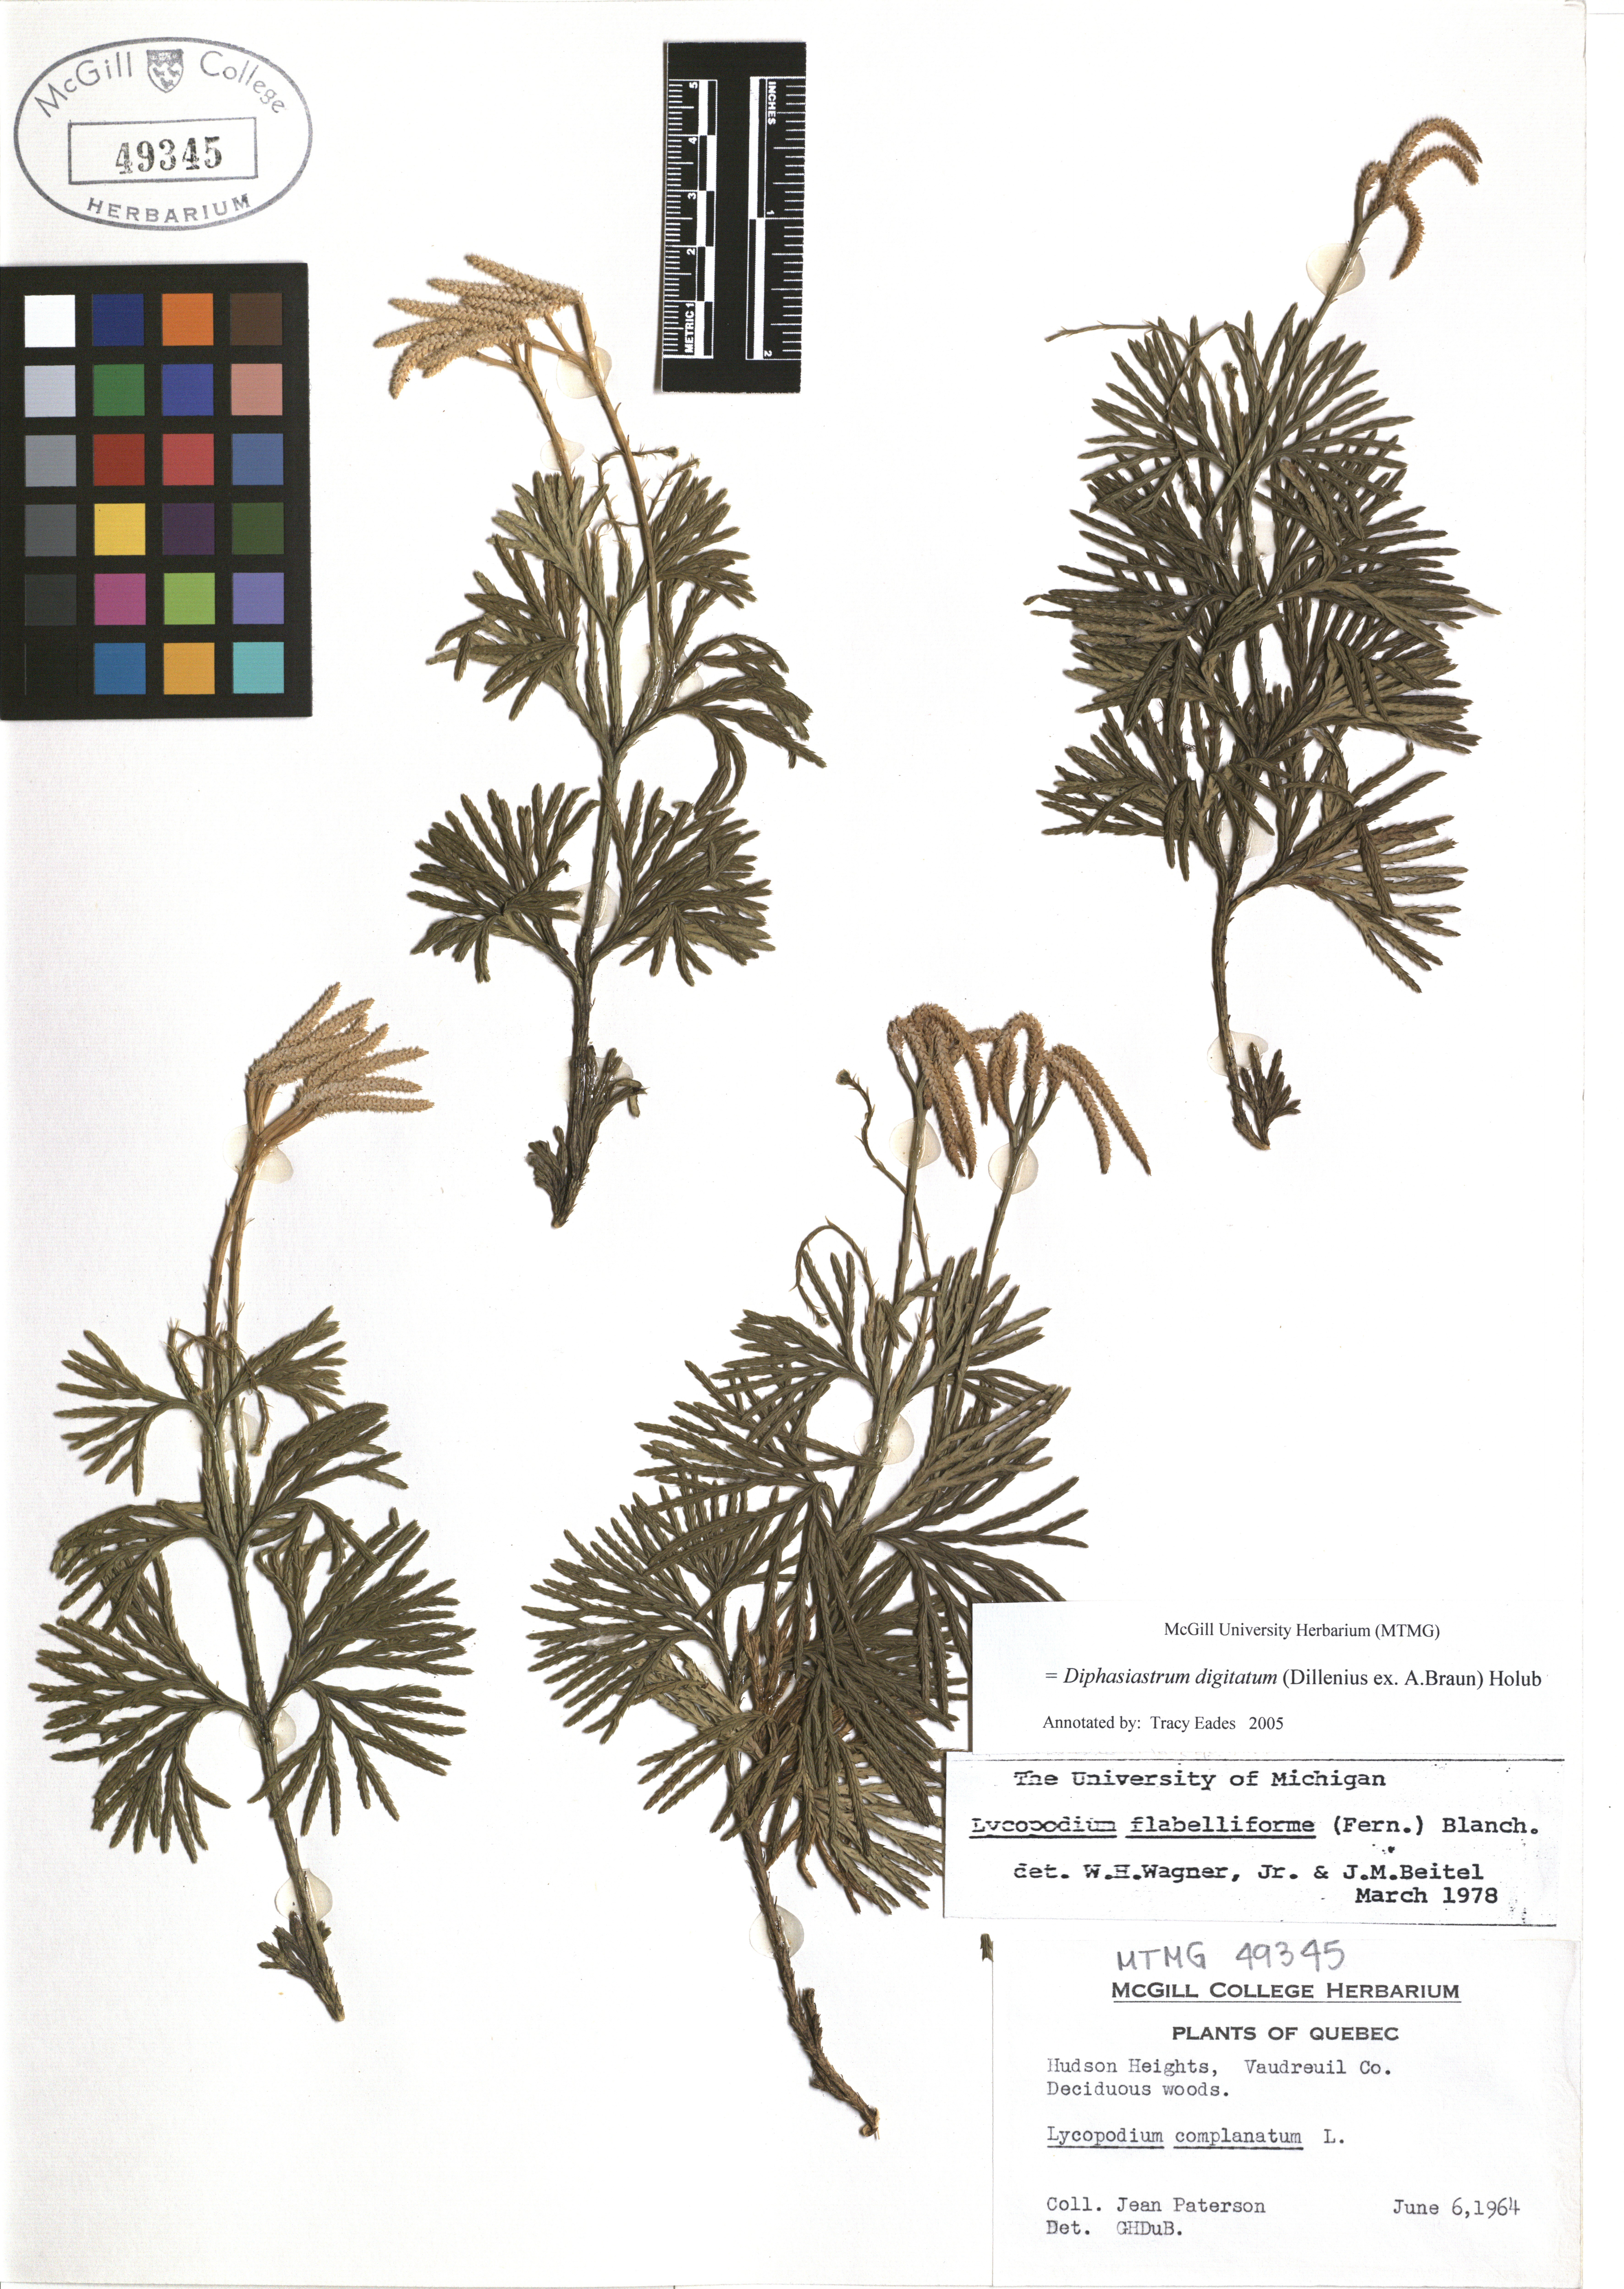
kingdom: Plantae
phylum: Tracheophyta
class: Lycopodiopsida
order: Lycopodiales
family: Lycopodiaceae
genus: Diphasiastrum
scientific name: Diphasiastrum digitatum
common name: Southern running-pine
